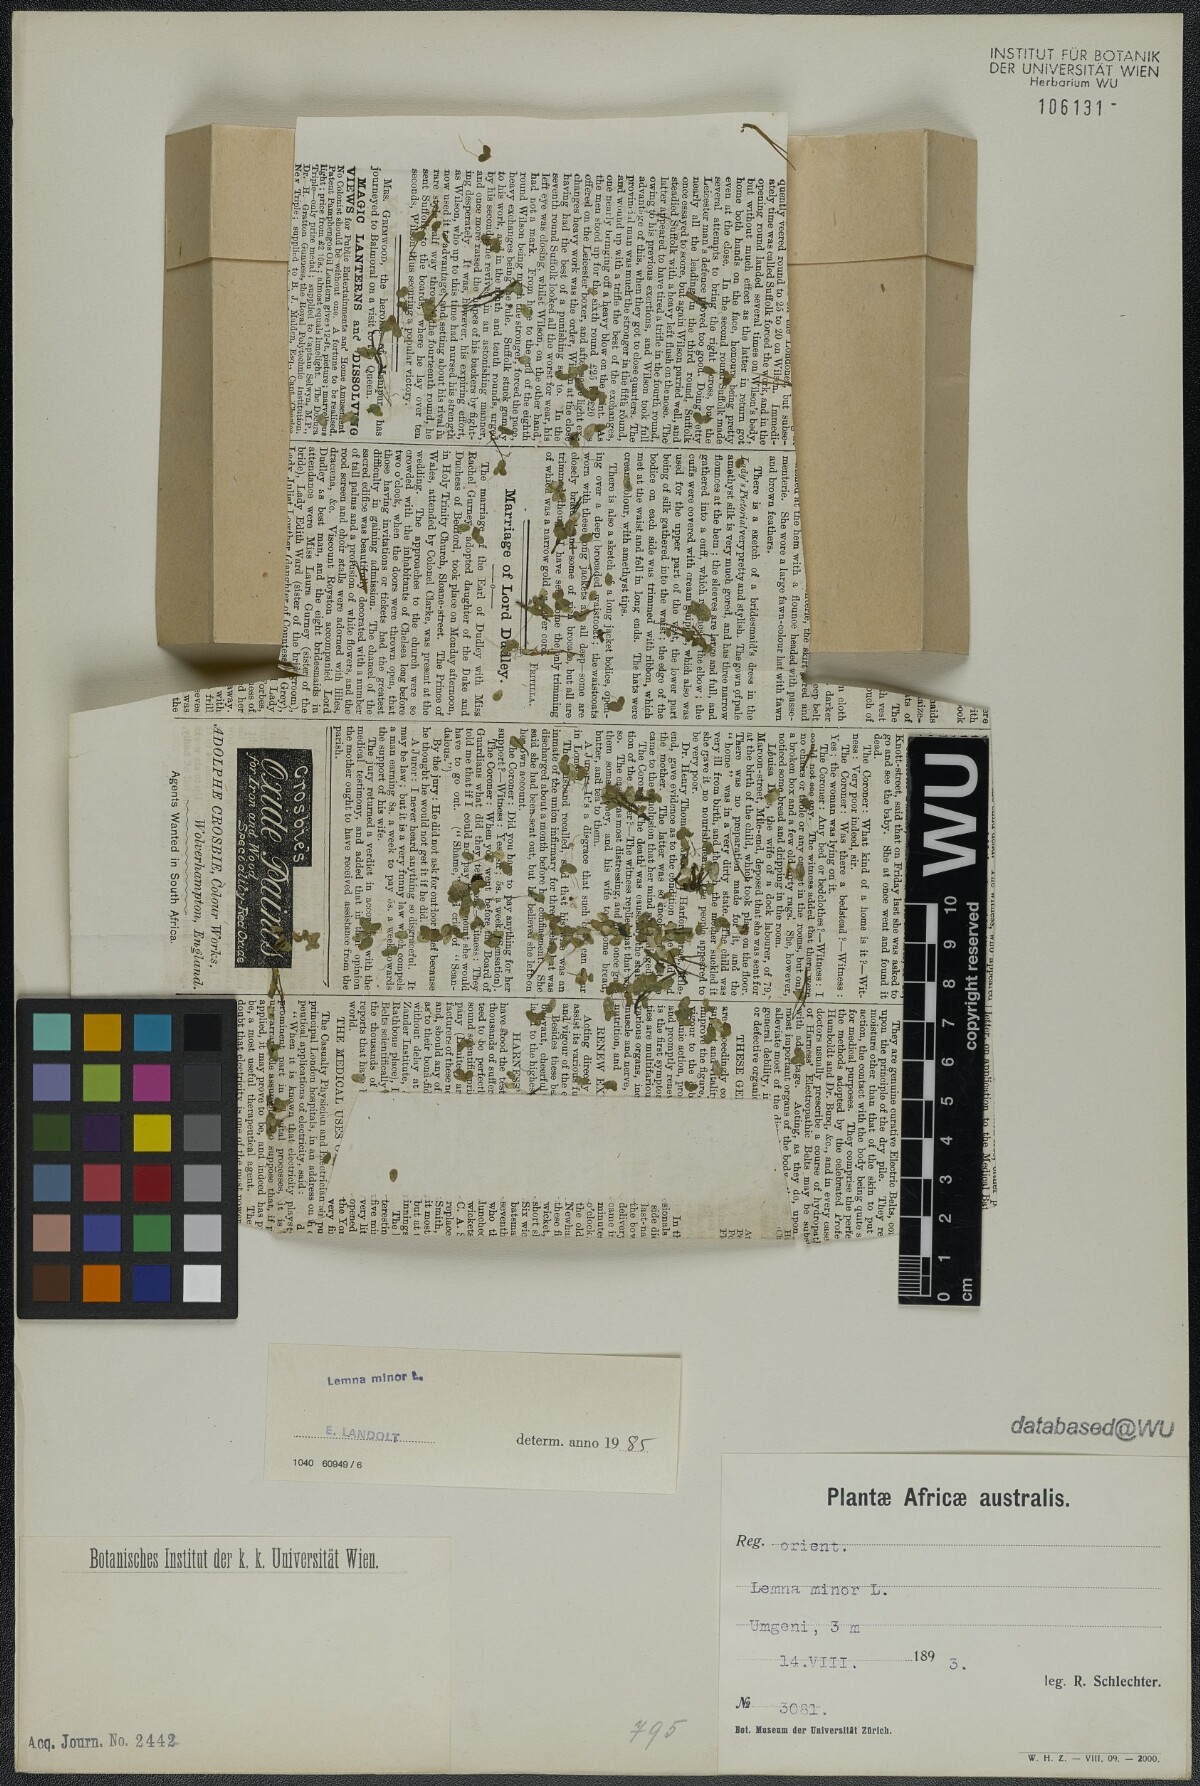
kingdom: Plantae
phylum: Tracheophyta
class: Liliopsida
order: Alismatales
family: Araceae
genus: Lemna
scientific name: Lemna minor
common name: Common duckweed
